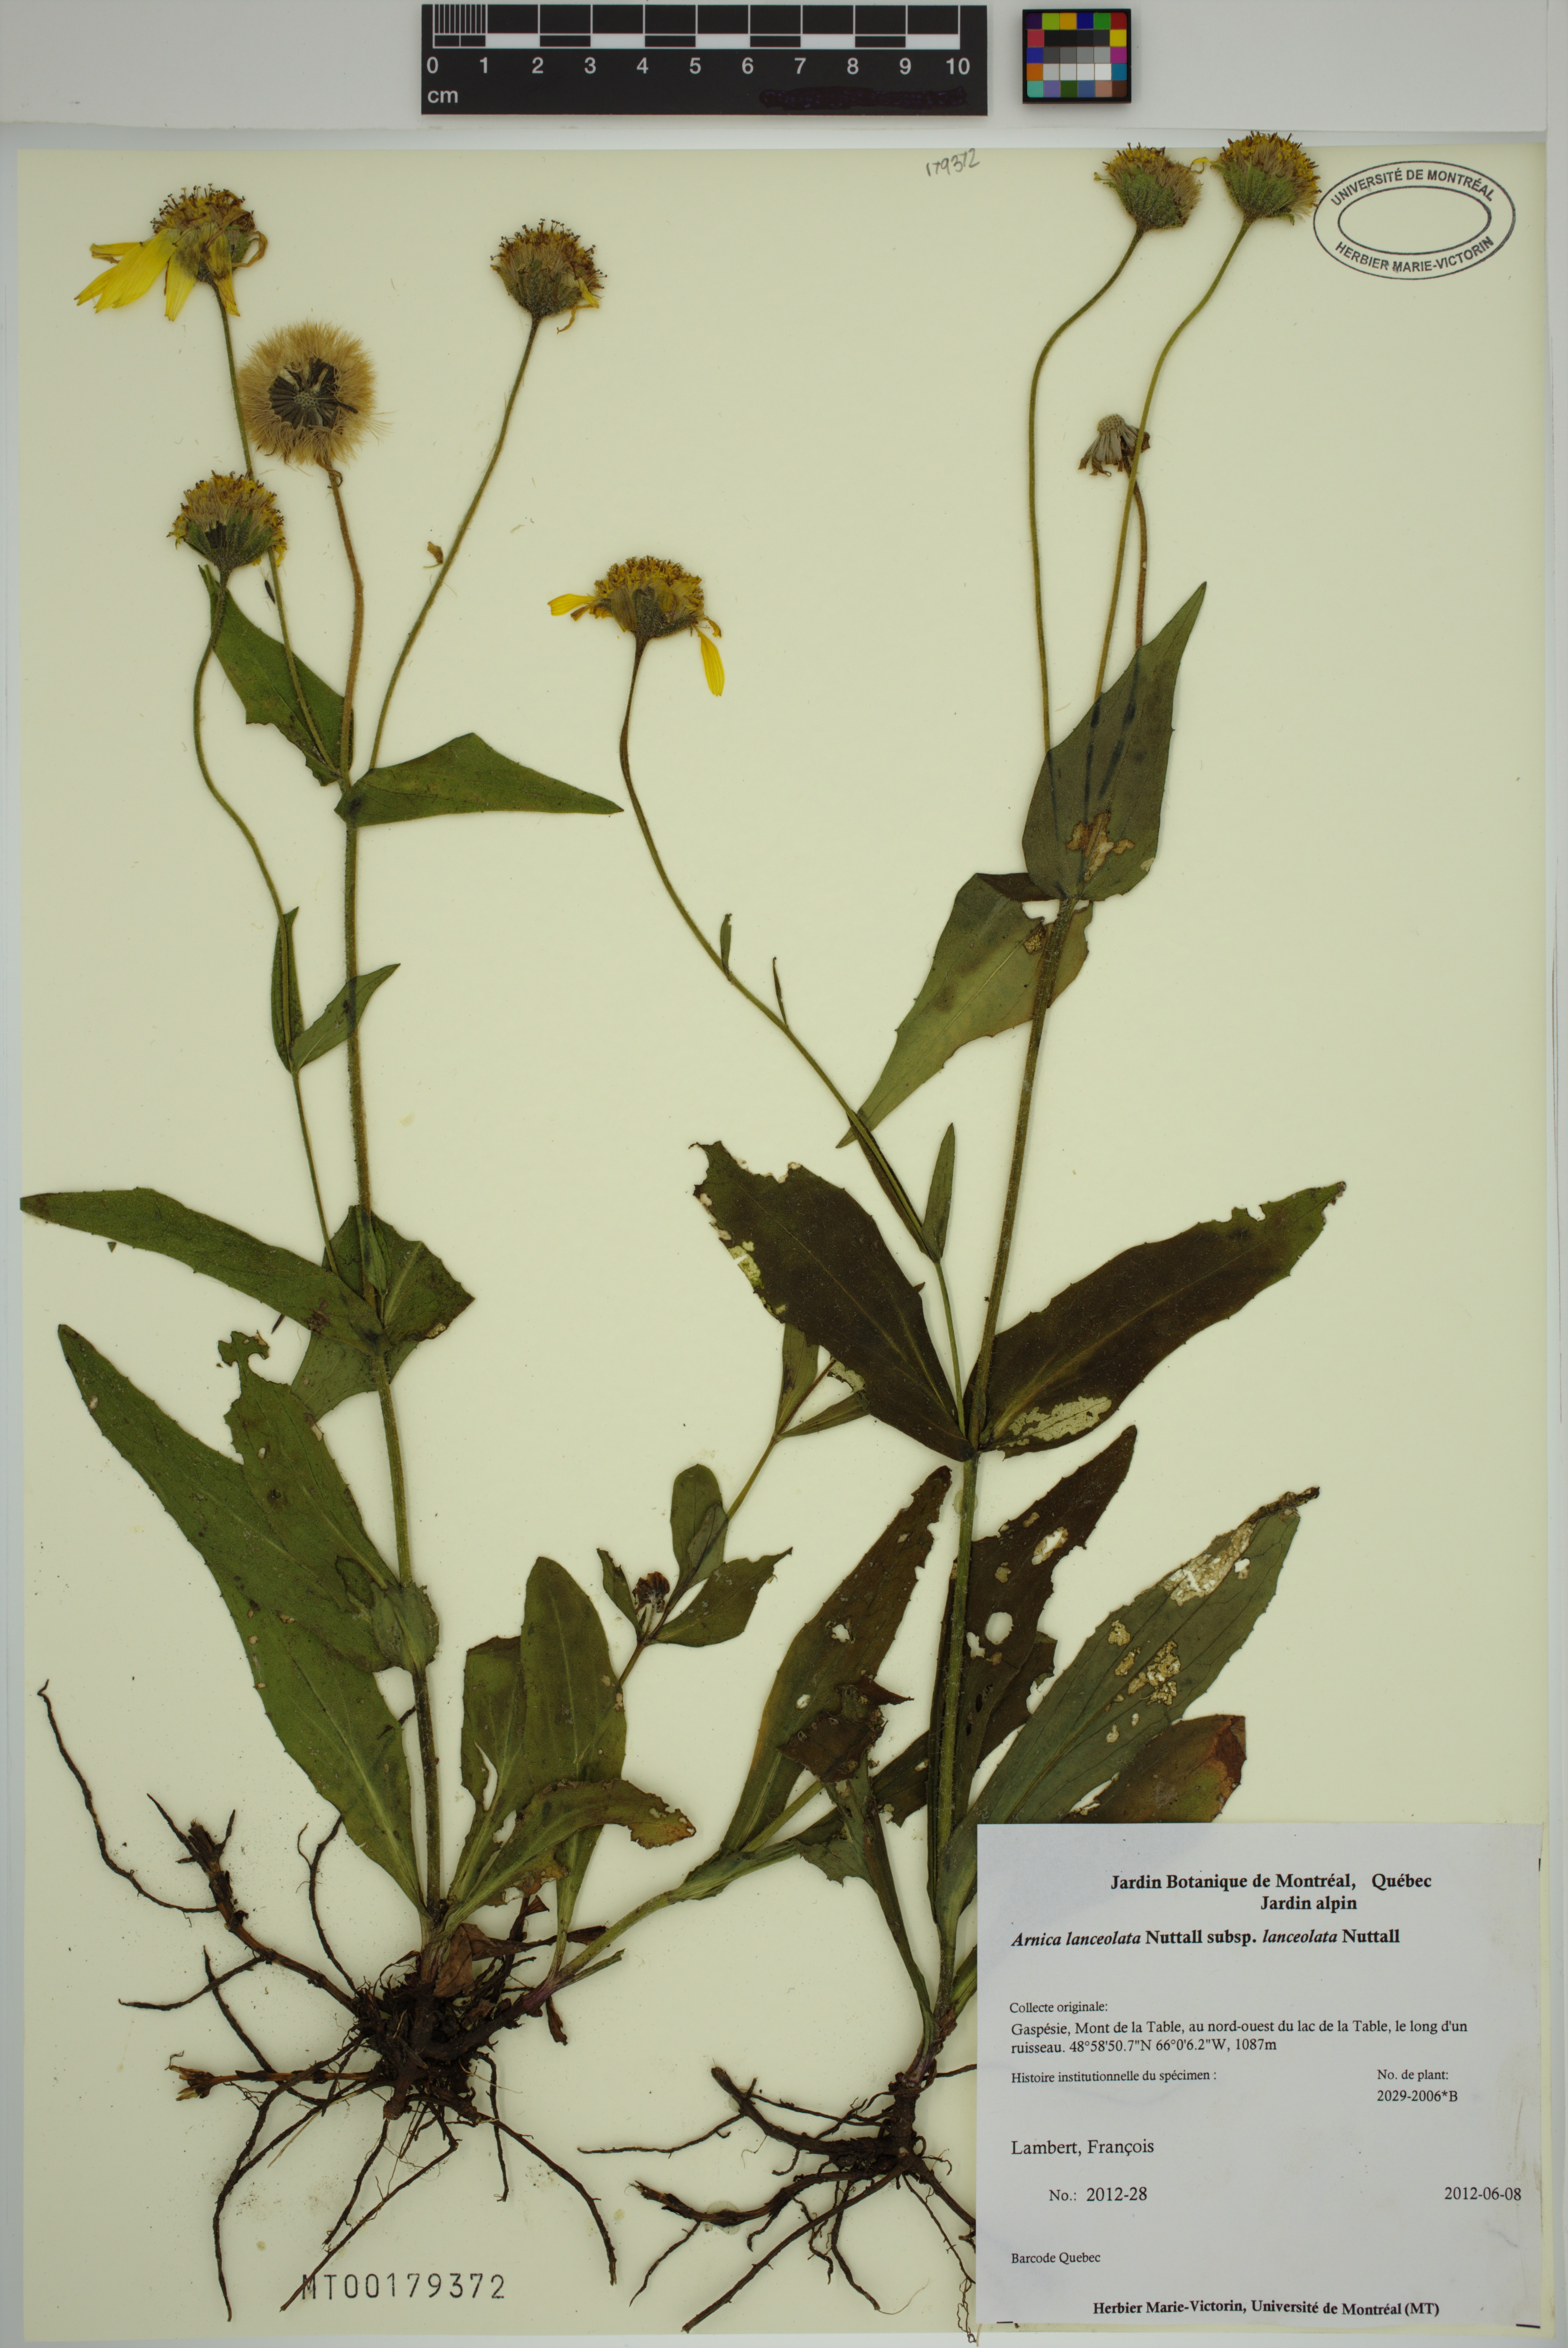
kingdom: Plantae
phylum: Tracheophyta
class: Magnoliopsida
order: Asterales
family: Asteraceae
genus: Arnica
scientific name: Arnica lanceolata
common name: Lance-leaved arnica
